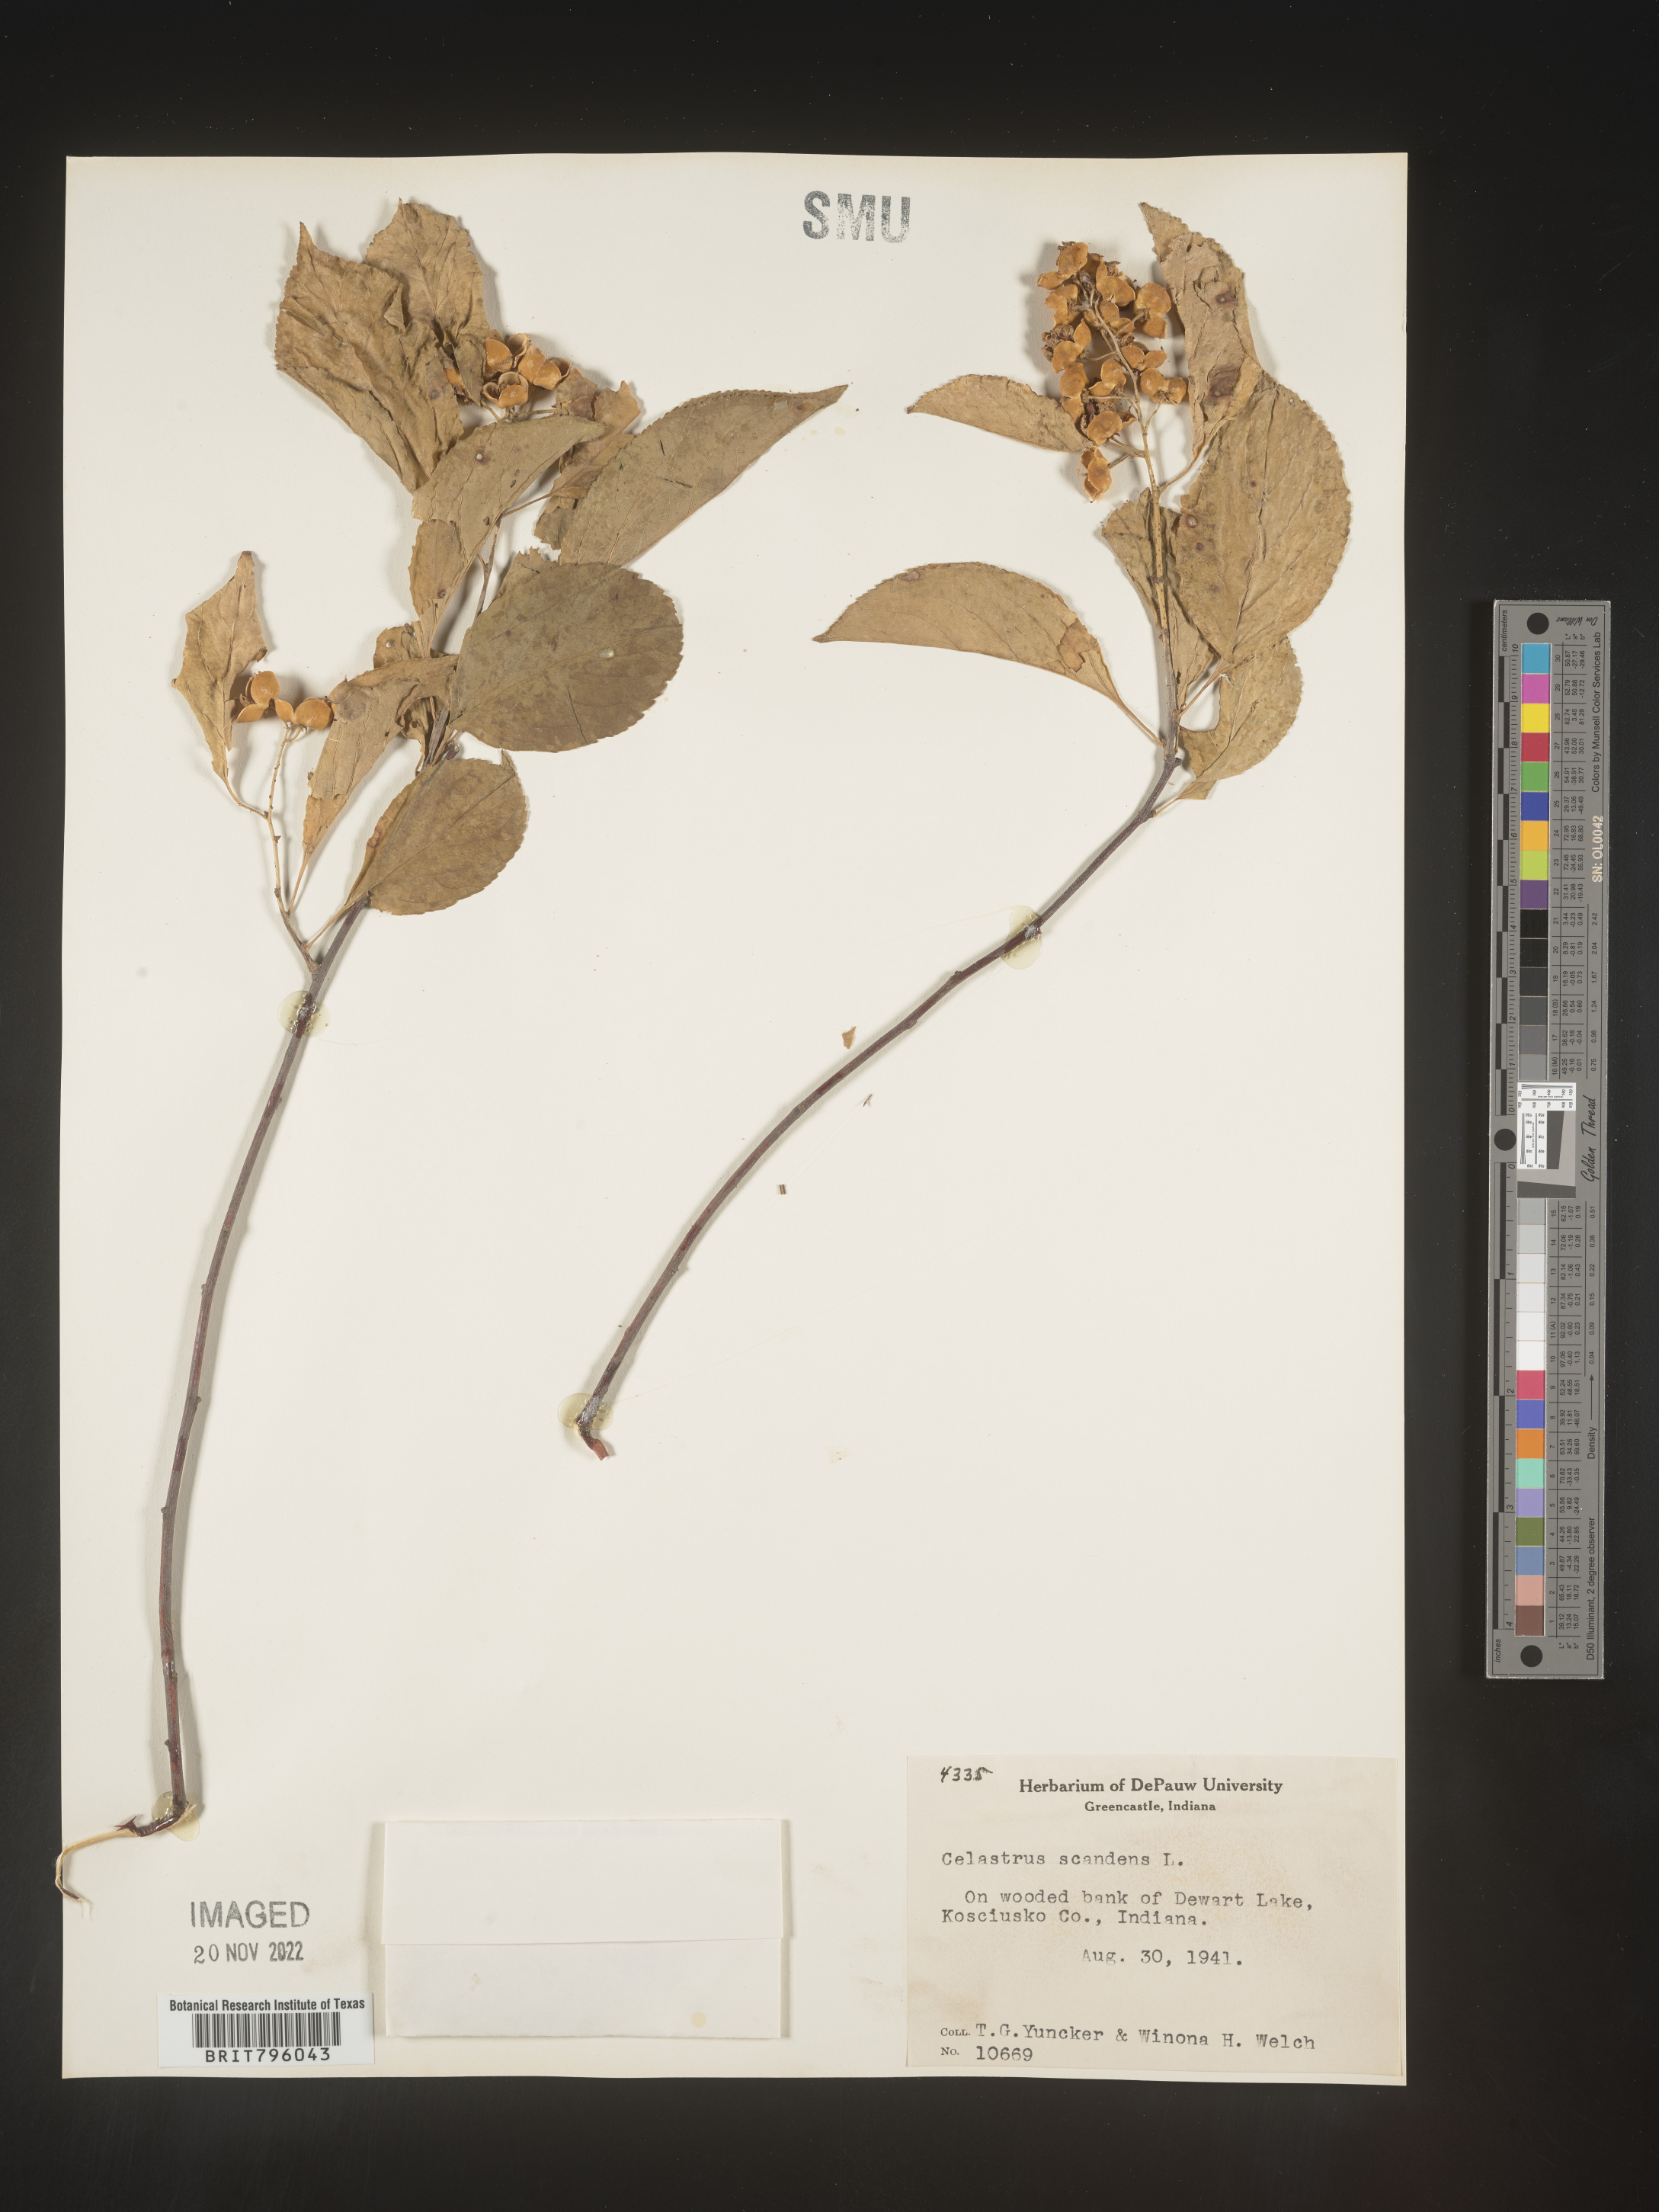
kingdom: Plantae
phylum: Tracheophyta
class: Magnoliopsida
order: Celastrales
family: Celastraceae
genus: Celastrus
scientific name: Celastrus scandens
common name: American bittersweet
